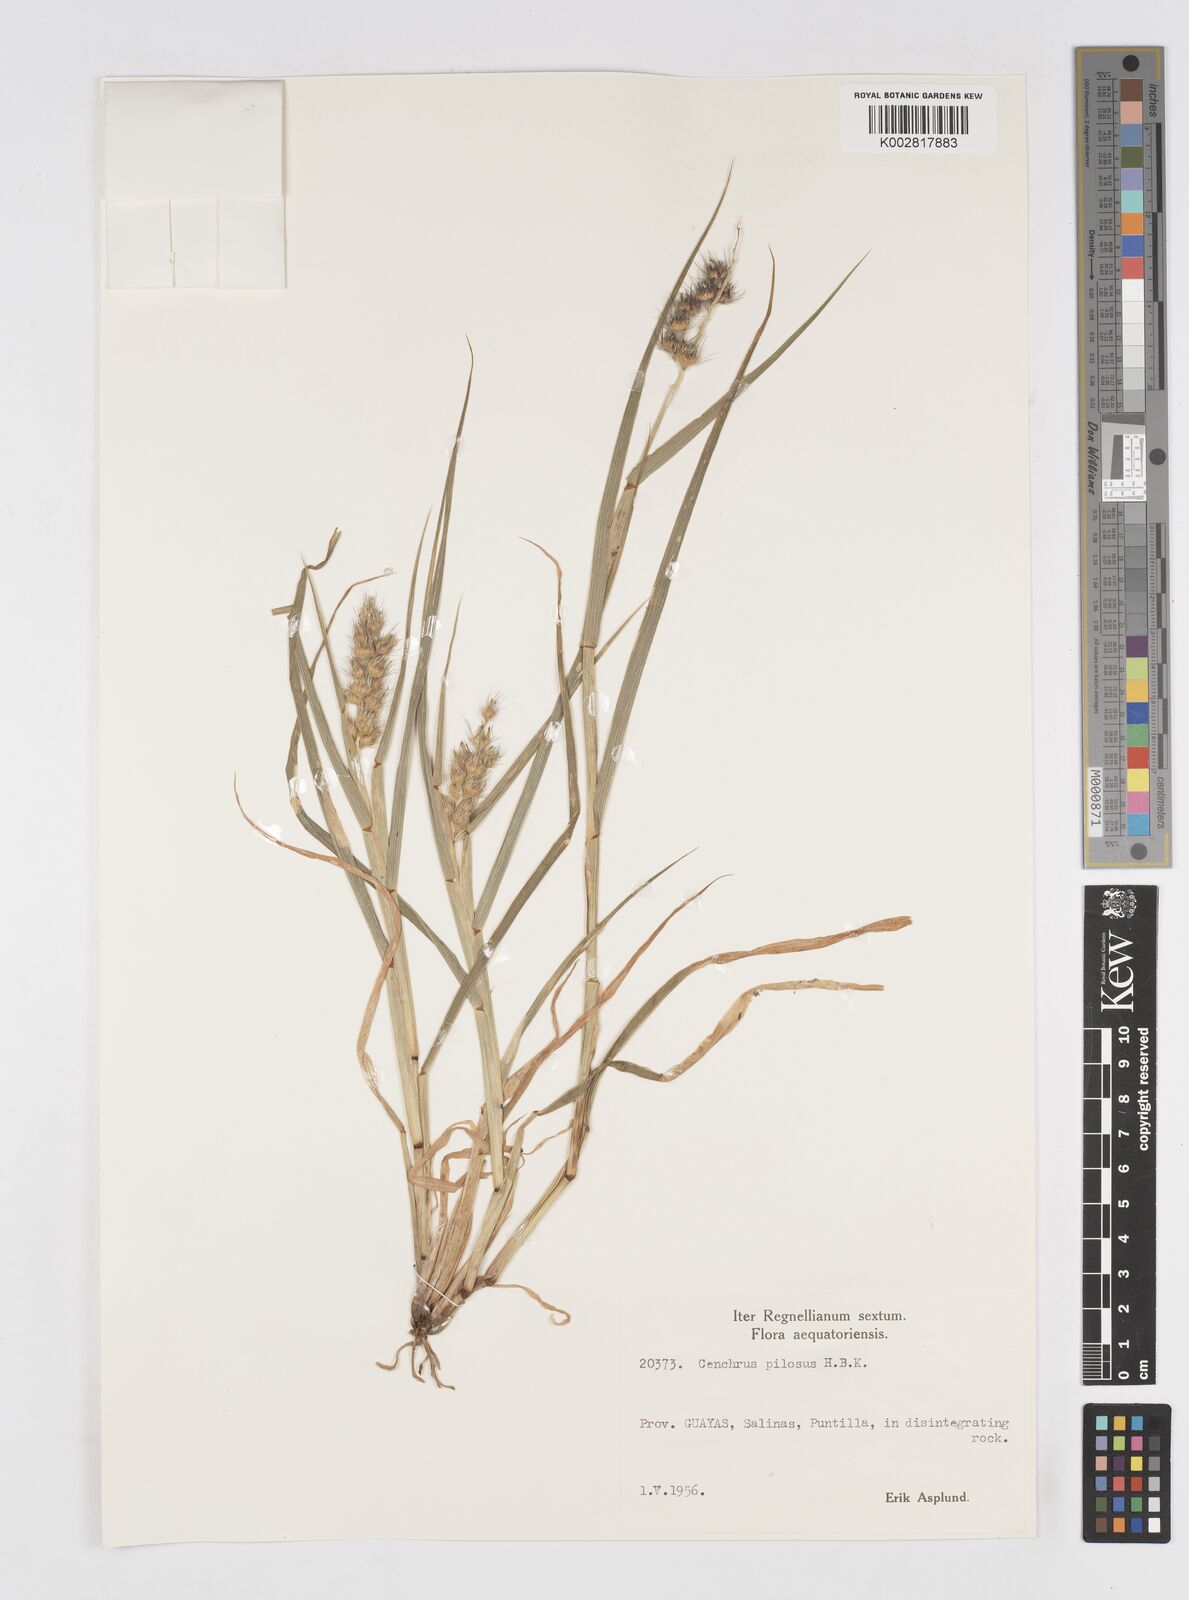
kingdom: Plantae
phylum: Tracheophyta
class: Liliopsida
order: Poales
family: Poaceae
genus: Cenchrus
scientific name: Cenchrus pilosus
